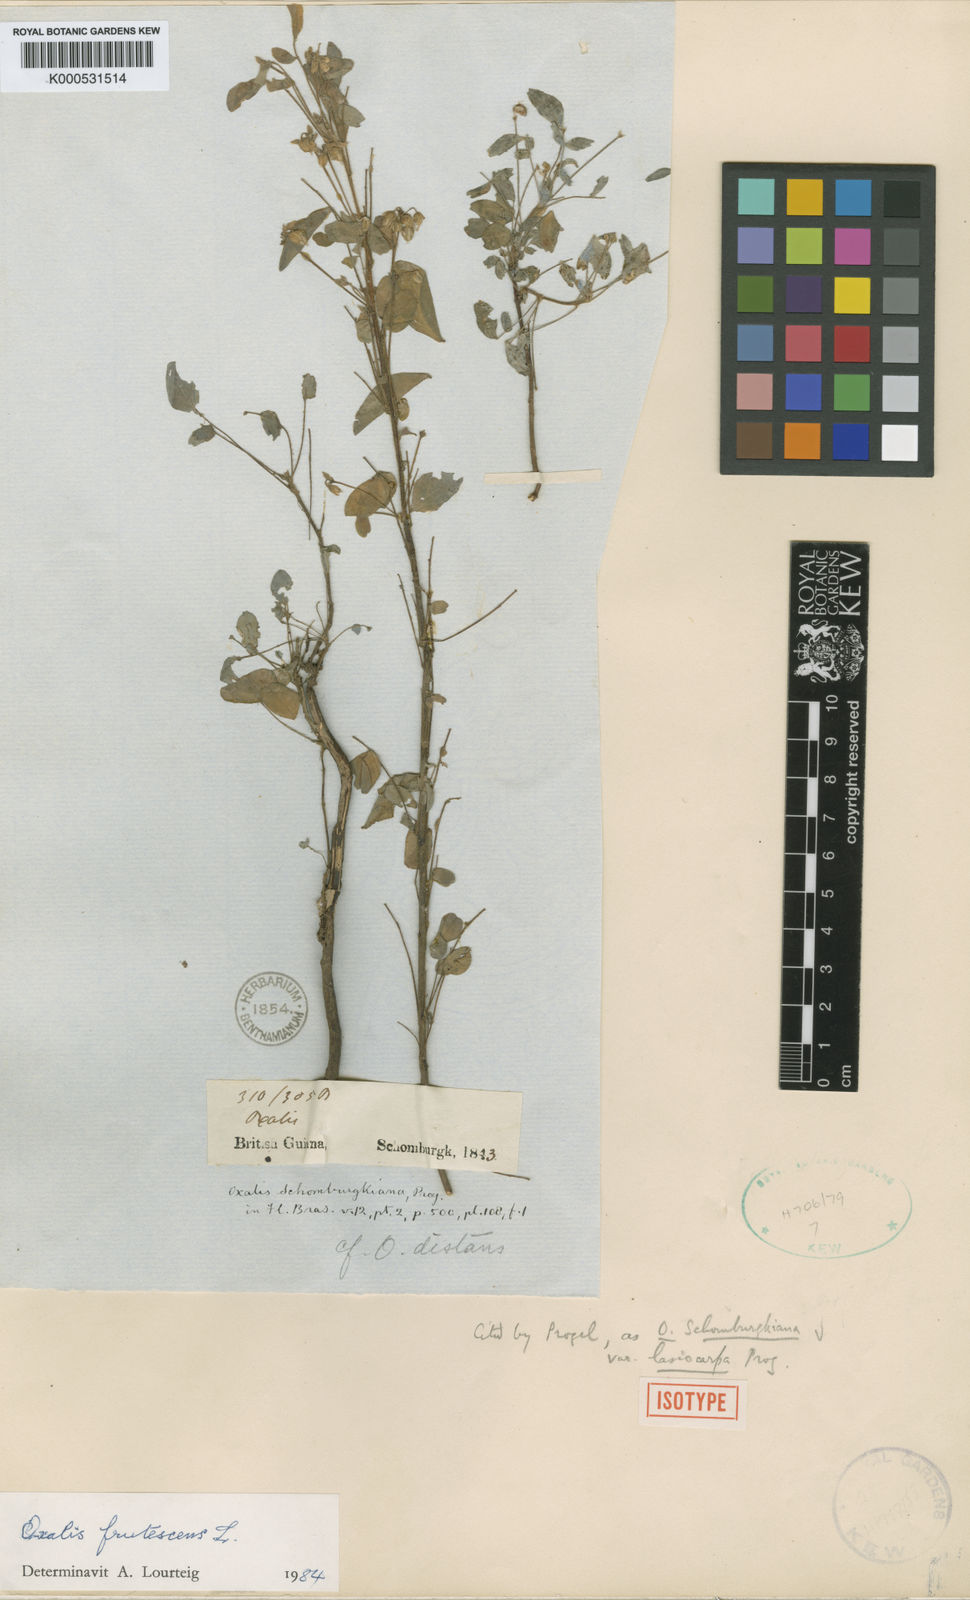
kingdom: Plantae
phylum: Tracheophyta
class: Magnoliopsida
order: Oxalidales
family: Oxalidaceae
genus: Oxalis
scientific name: Oxalis frutescens
